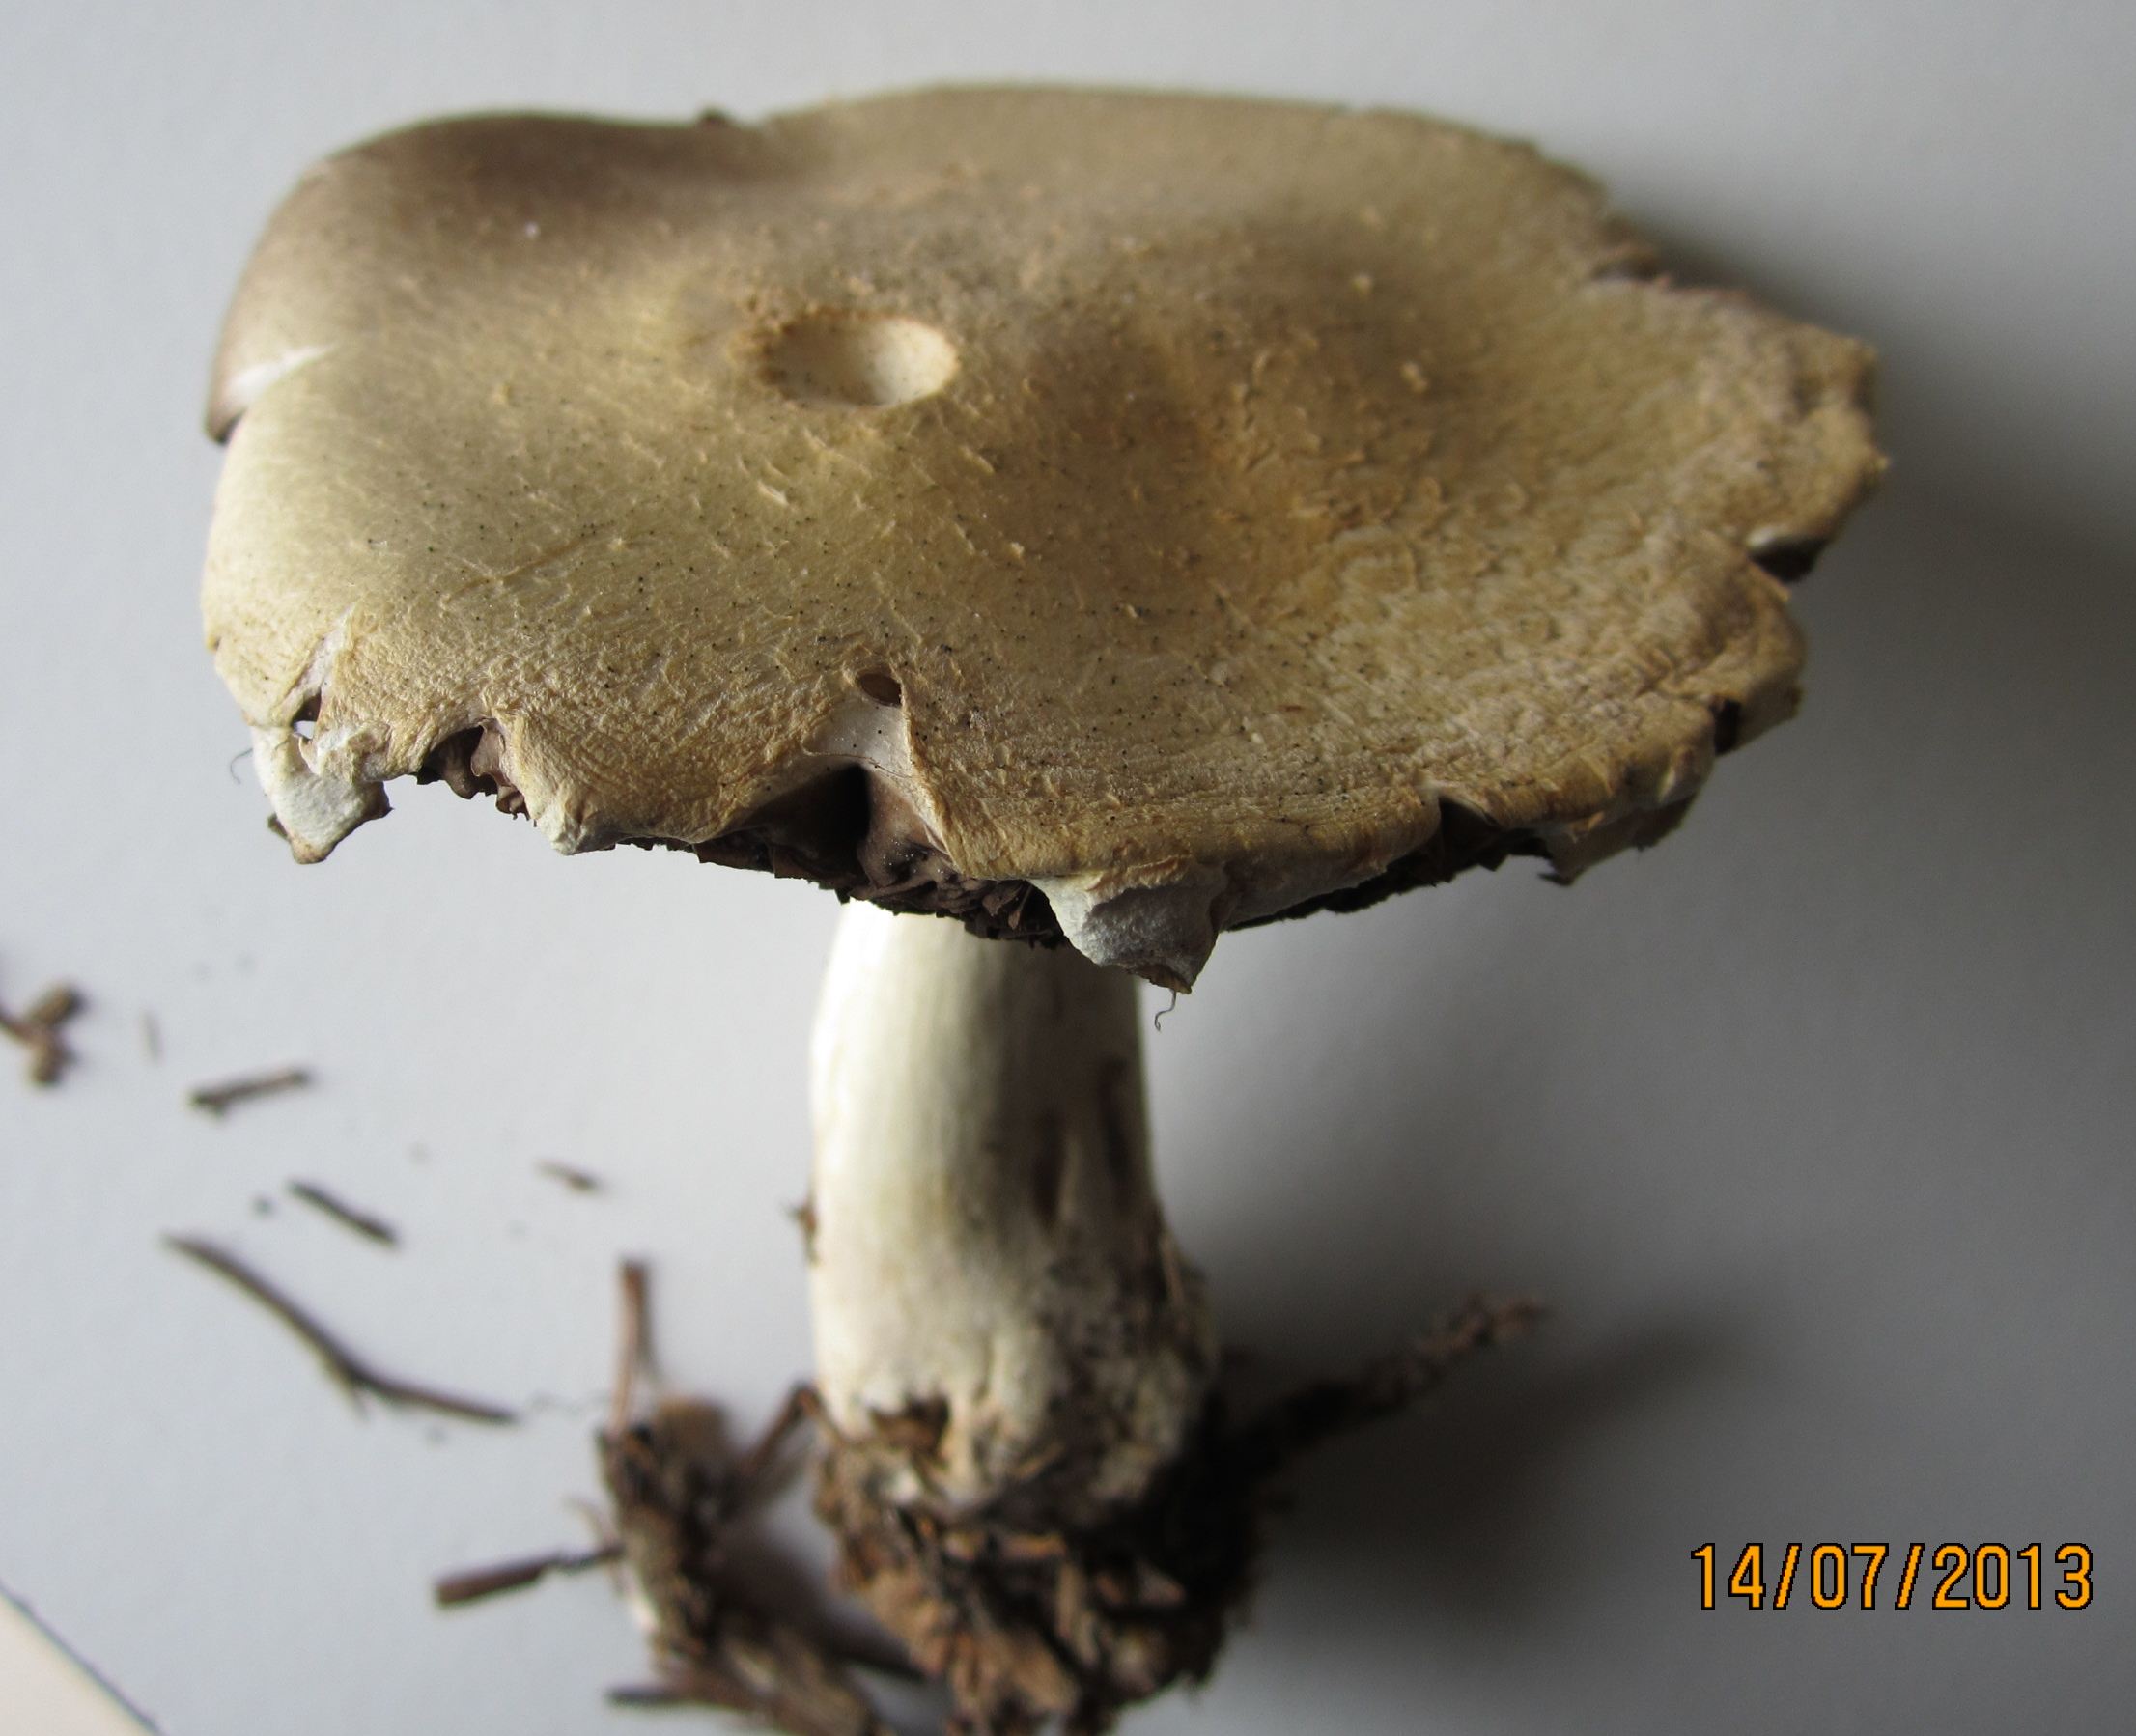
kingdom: Fungi
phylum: Basidiomycota
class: Agaricomycetes
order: Agaricales
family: Agaricaceae
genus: Agaricus
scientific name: Agaricus sylvicola
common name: gulhvid champignon
